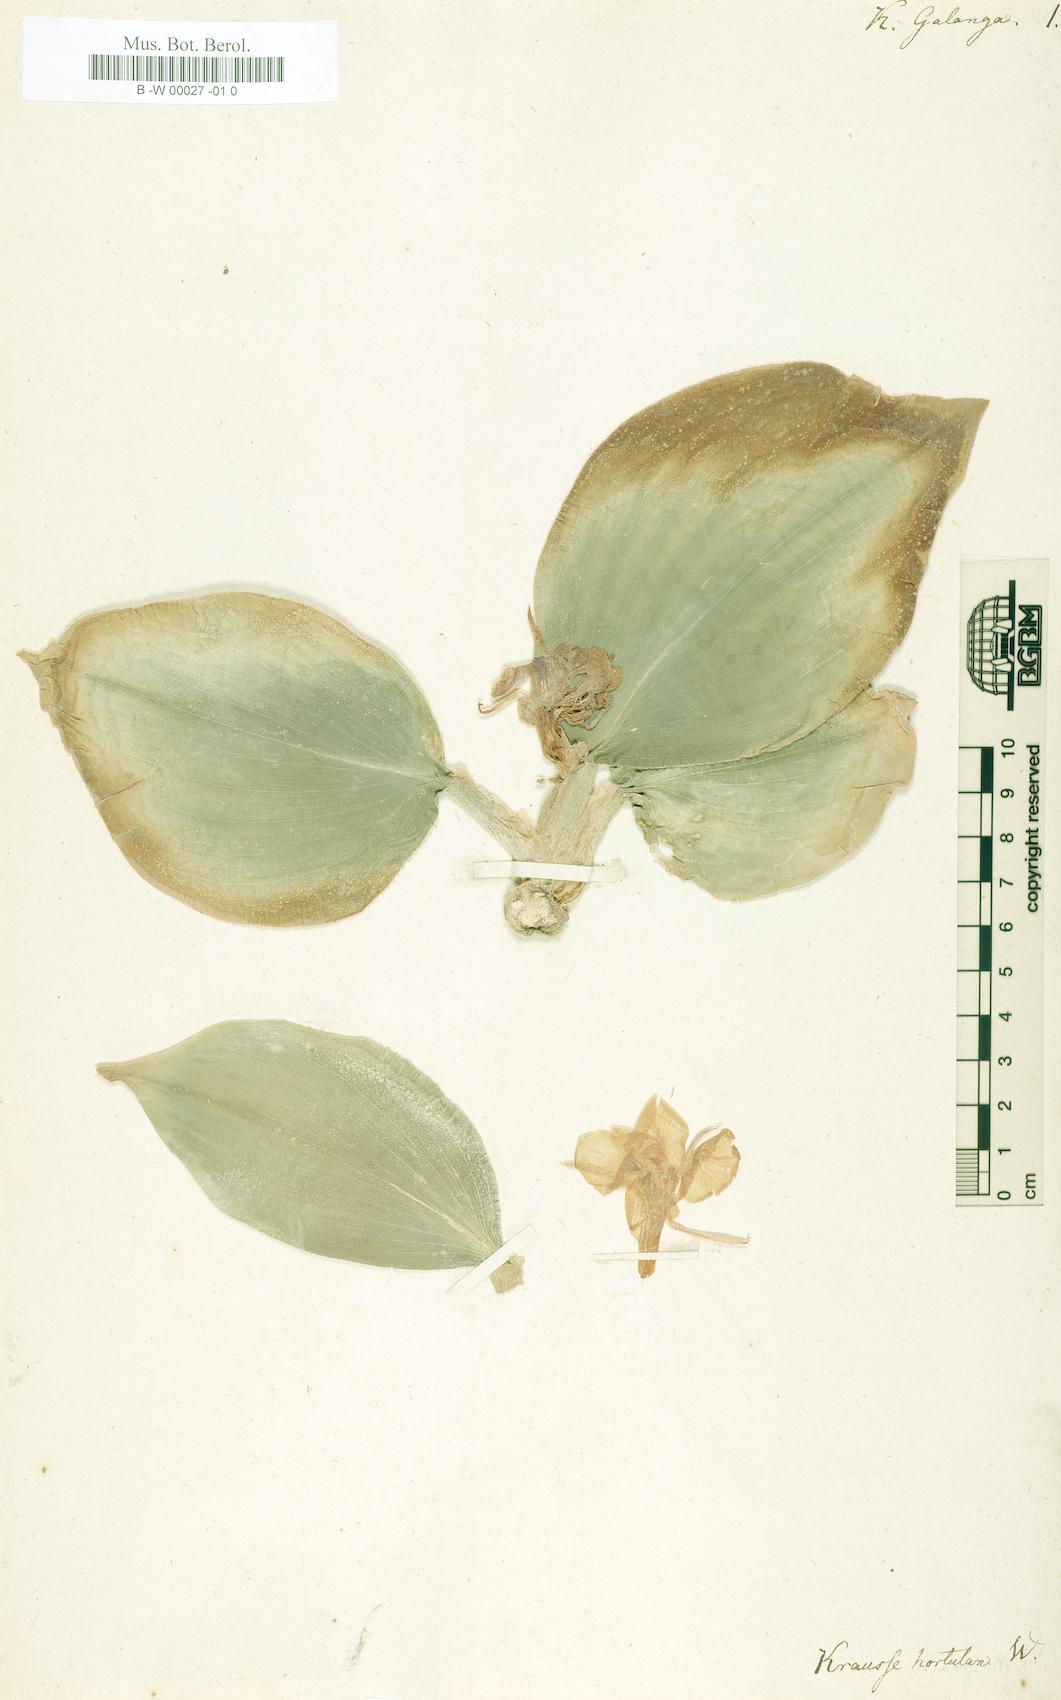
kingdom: Plantae
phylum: Tracheophyta
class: Liliopsida
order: Zingiberales
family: Zingiberaceae
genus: Kaempferia
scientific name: Kaempferia galanga
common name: Aromatic ginger
